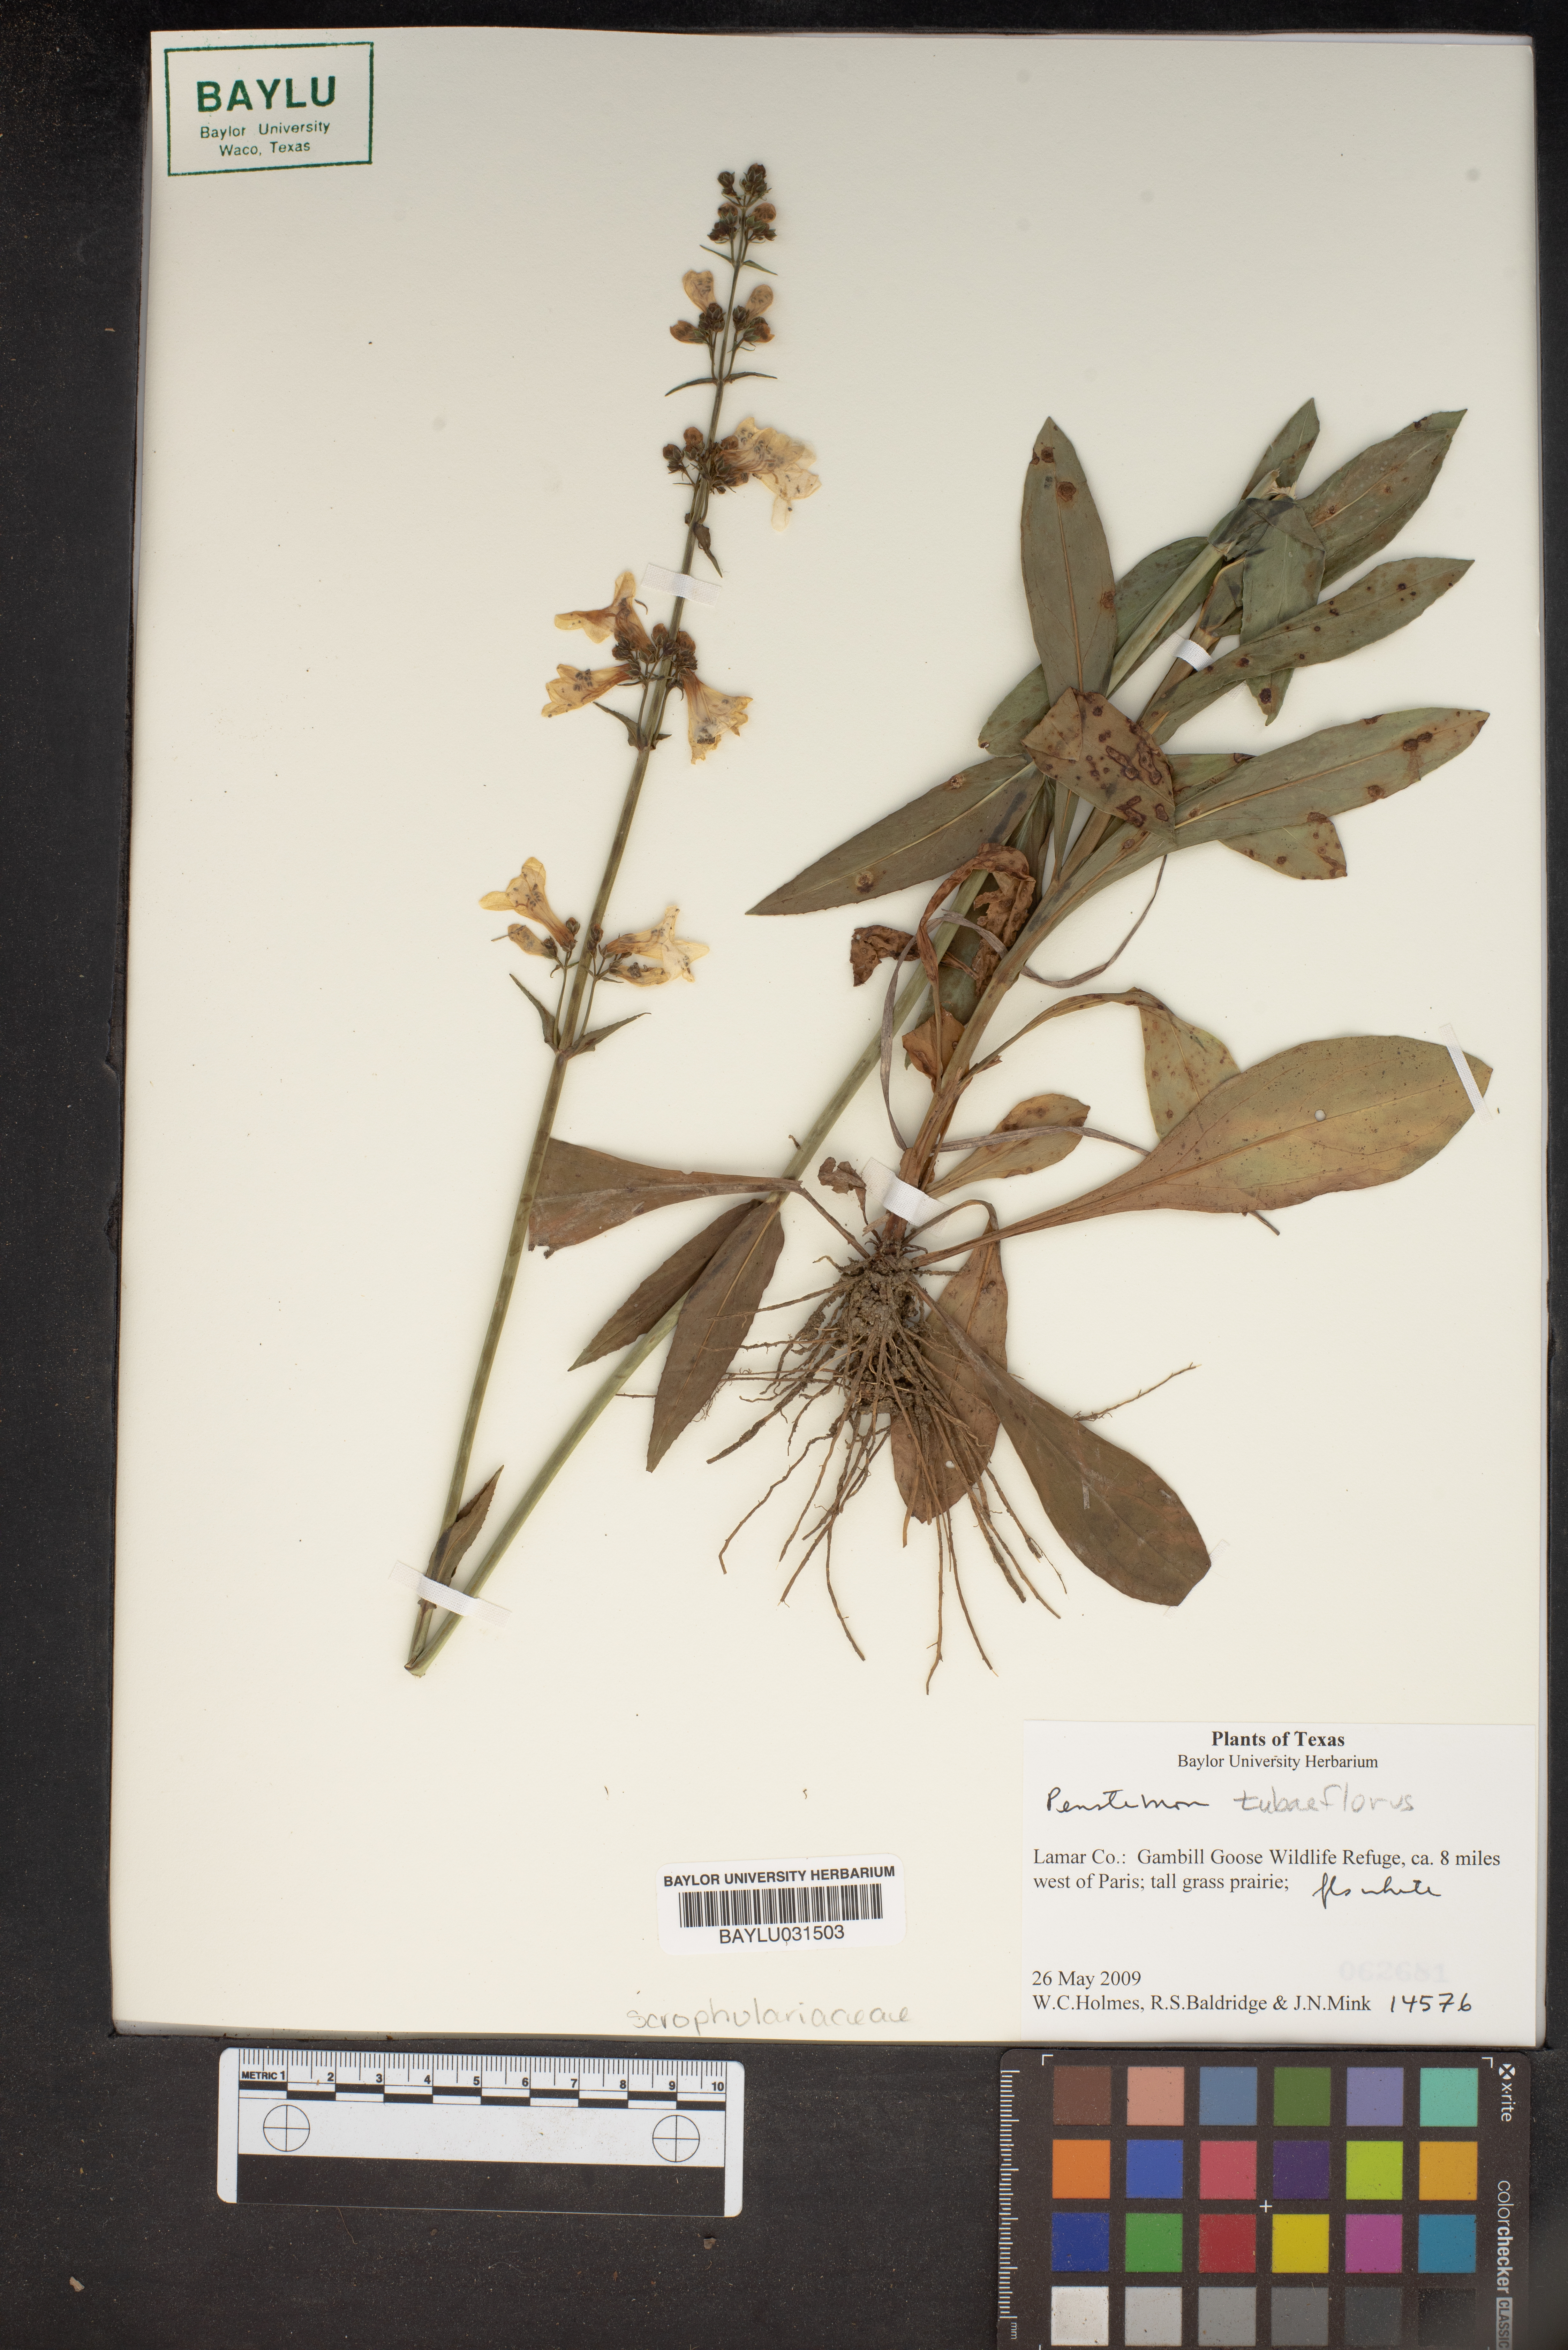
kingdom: Plantae
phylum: Tracheophyta
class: Magnoliopsida
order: Lamiales
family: Plantaginaceae
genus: Penstemon
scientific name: Penstemon tubaeflorus
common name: White wand beardtongue
